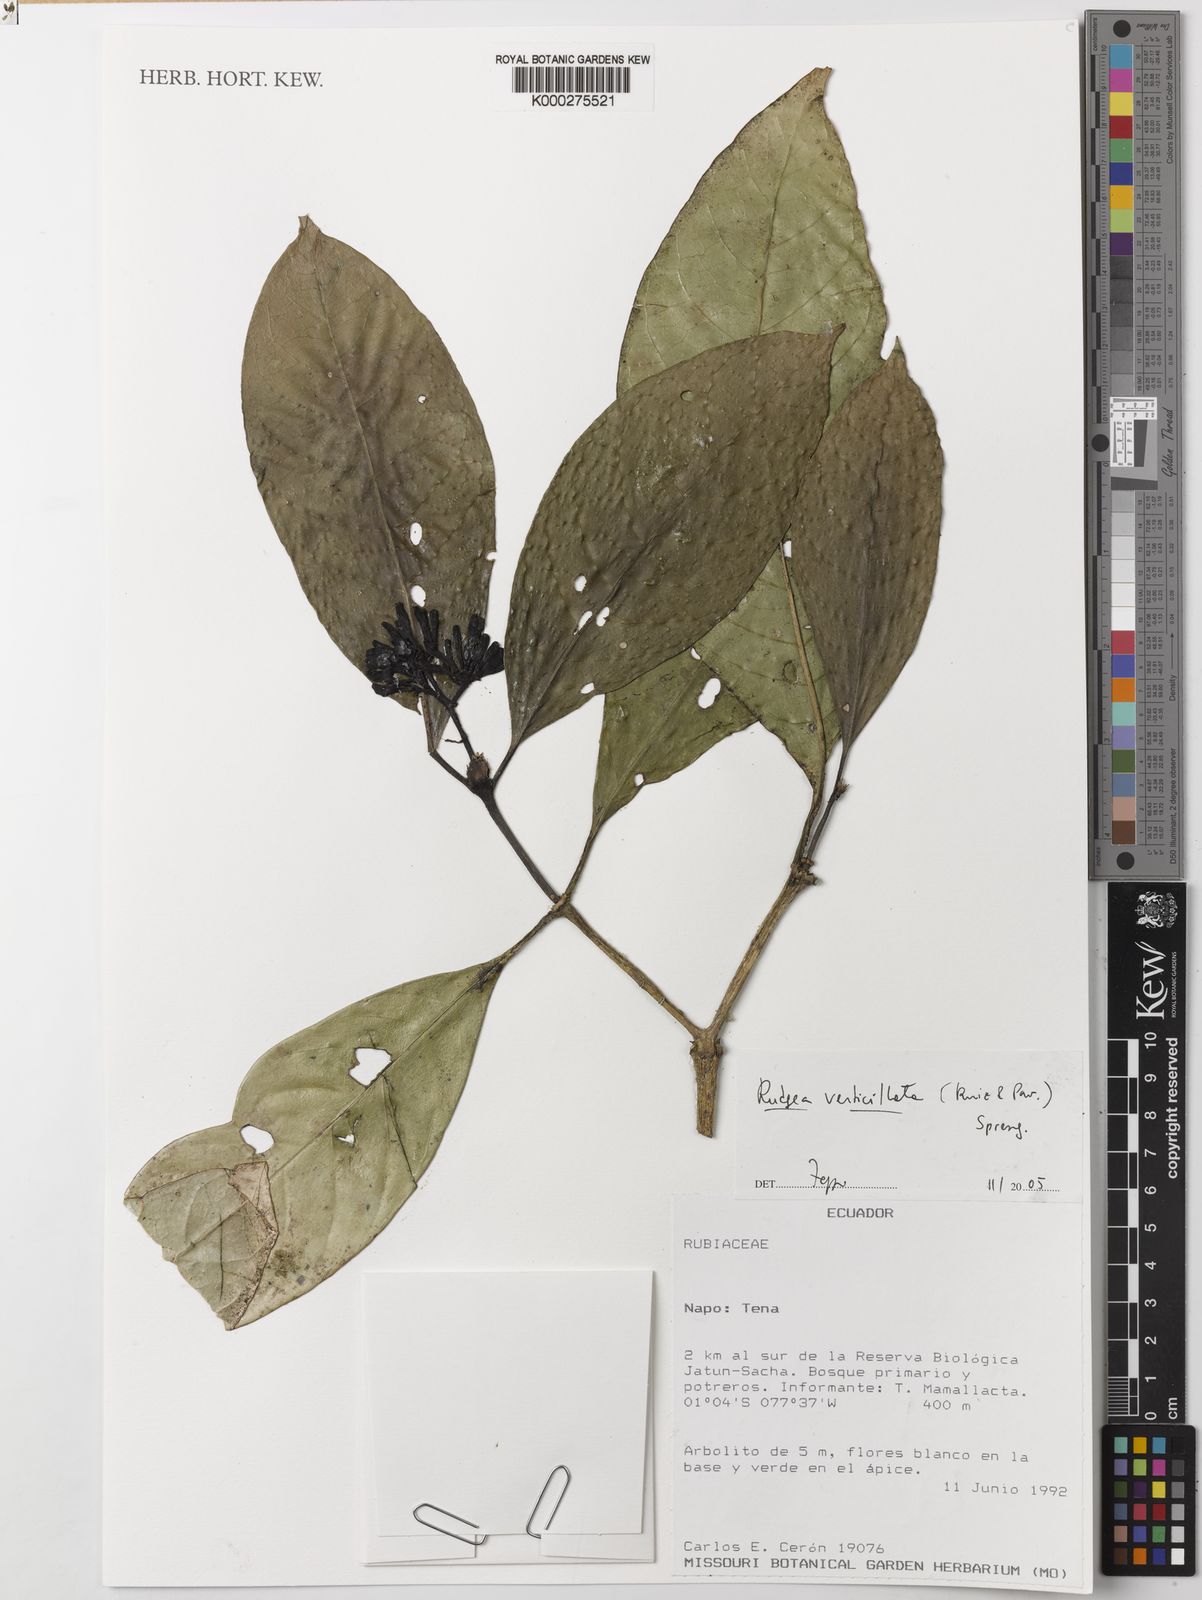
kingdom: Plantae
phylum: Tracheophyta
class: Magnoliopsida
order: Gentianales
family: Rubiaceae
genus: Rudgea
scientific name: Rudgea verticillata
